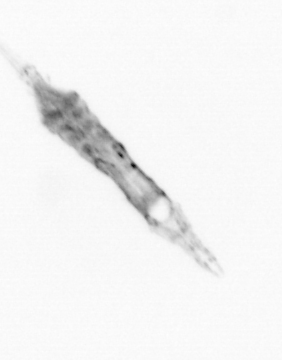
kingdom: Animalia
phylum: Arthropoda
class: Copepoda
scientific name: Copepoda
